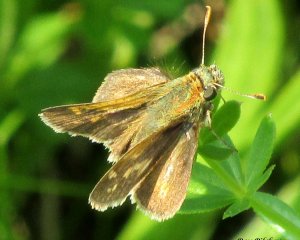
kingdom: Animalia
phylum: Arthropoda
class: Insecta
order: Lepidoptera
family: Hesperiidae
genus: Polites
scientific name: Polites coras
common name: Peck's Skipper
